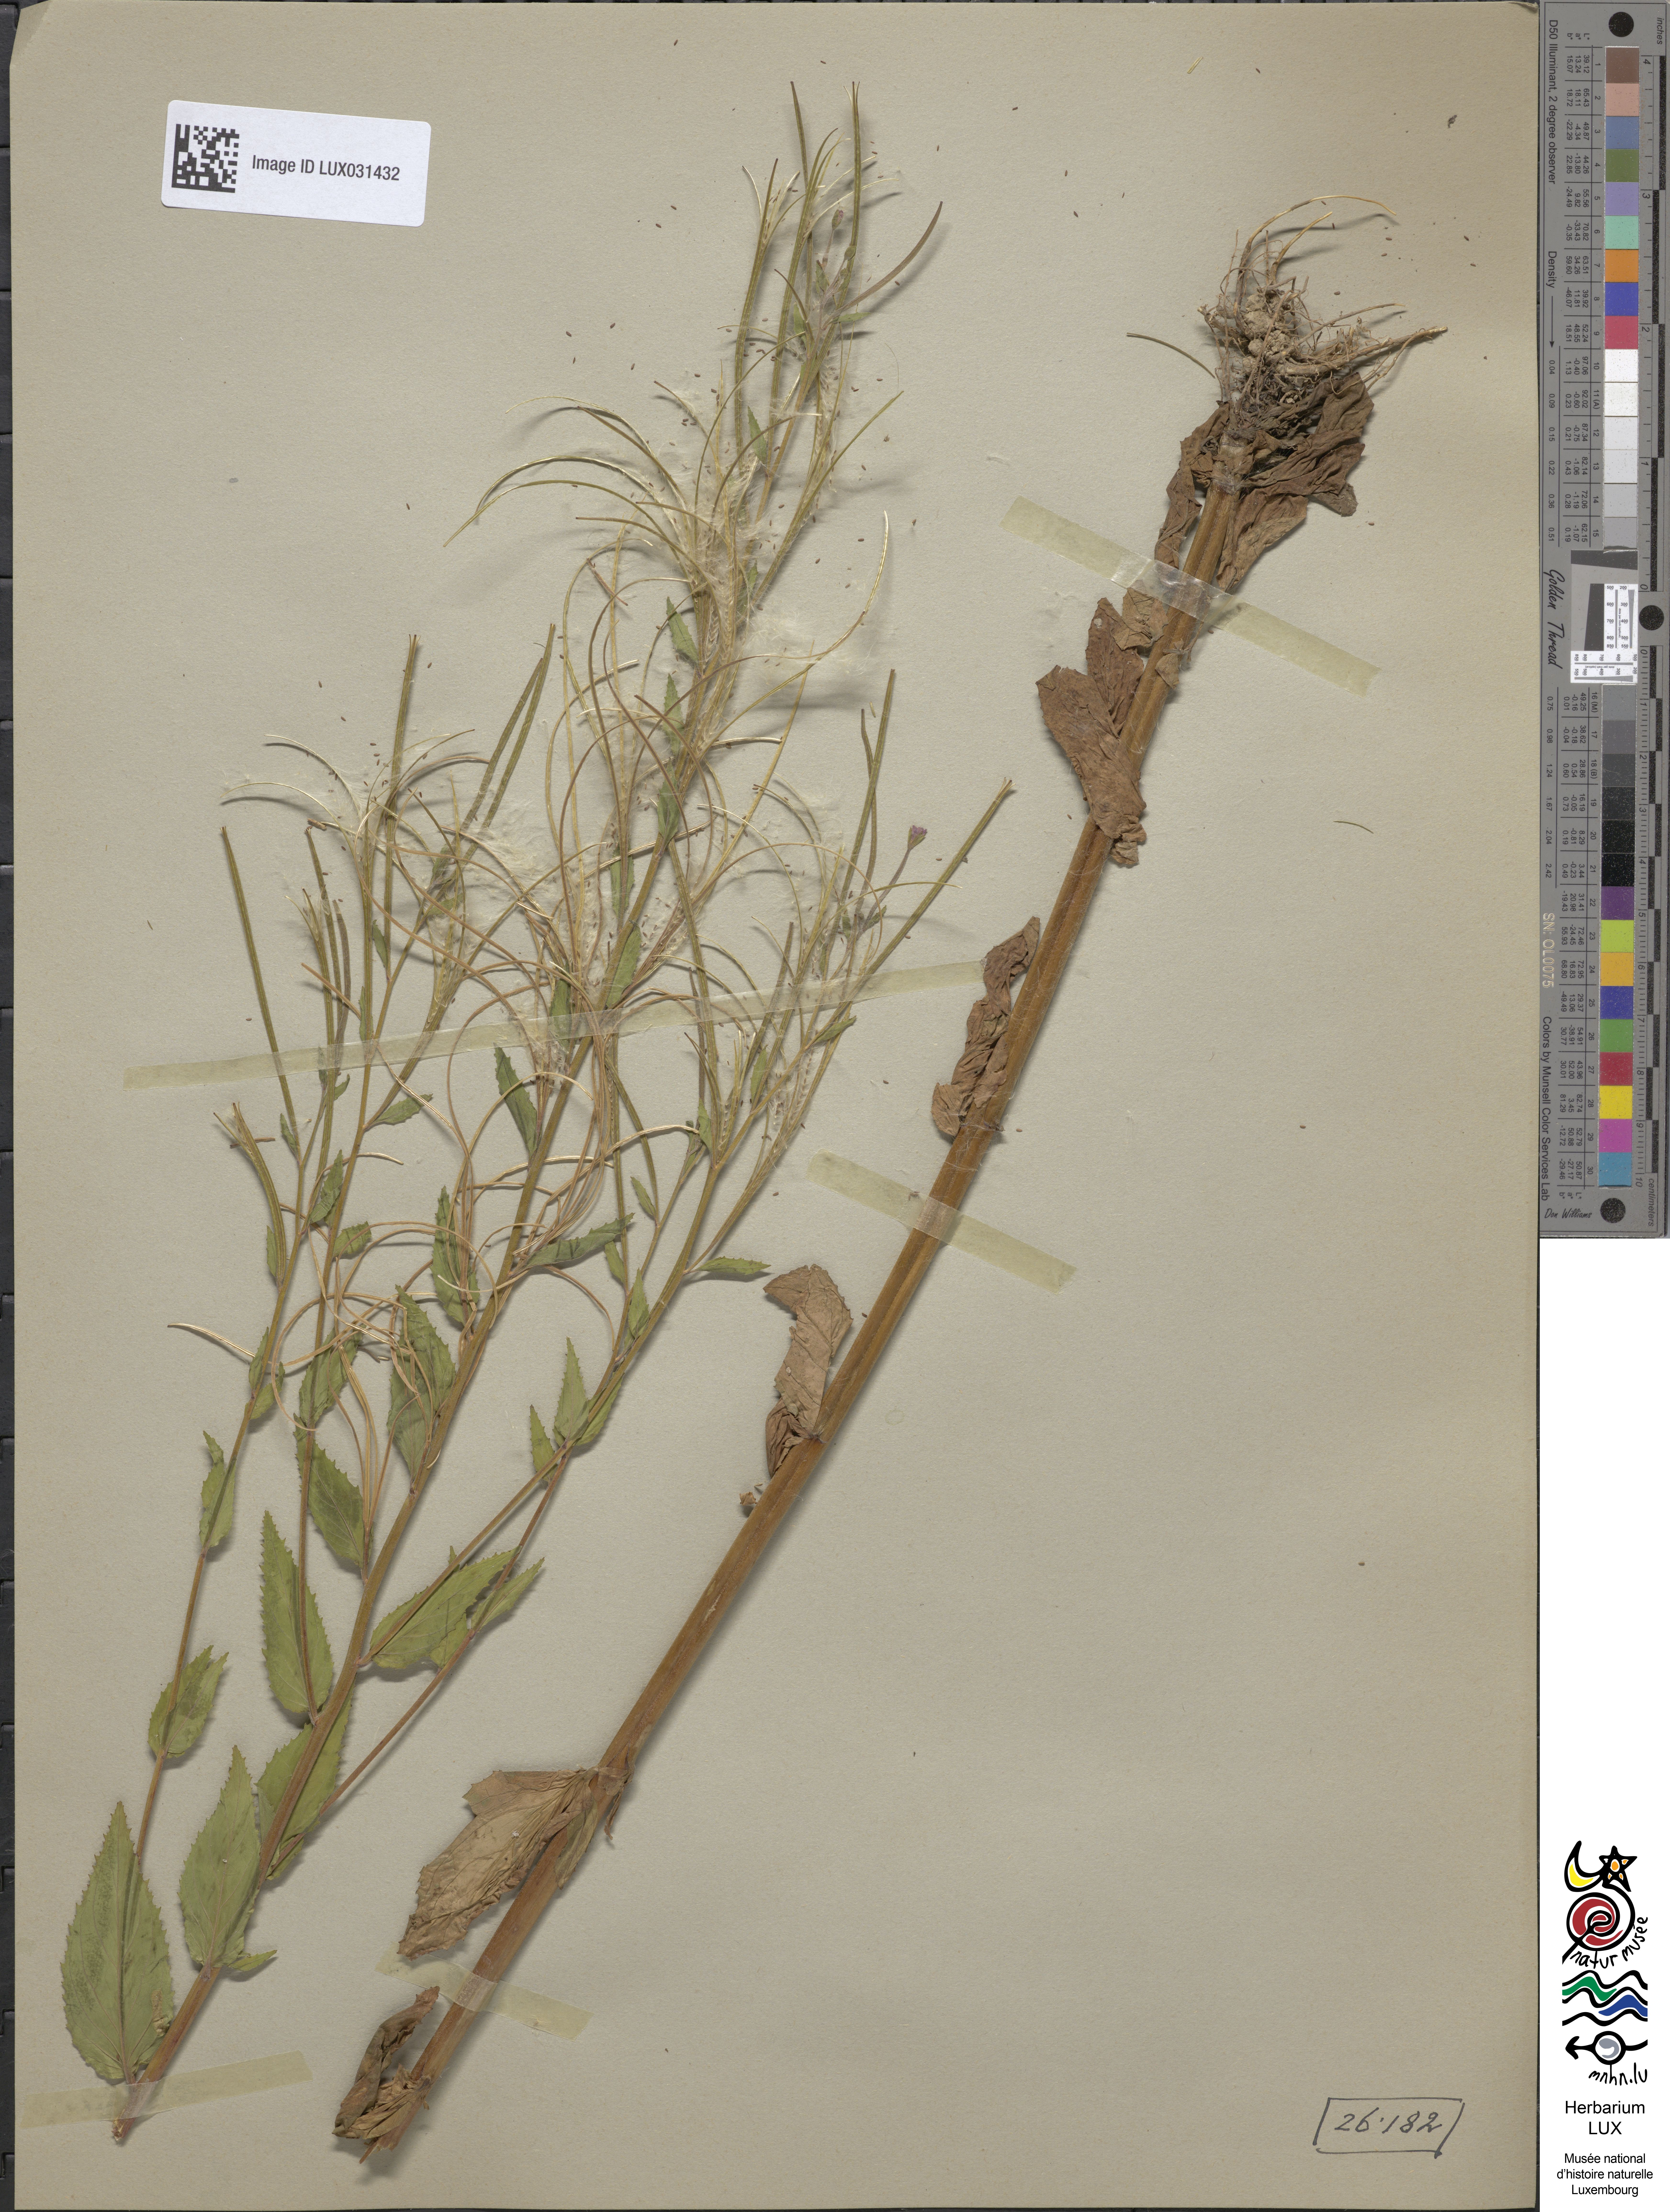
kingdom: Plantae
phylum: Tracheophyta
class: Magnoliopsida
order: Myrtales
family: Onagraceae
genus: Epilobium
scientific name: Epilobium montanum
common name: Broad-leaved willowherb
